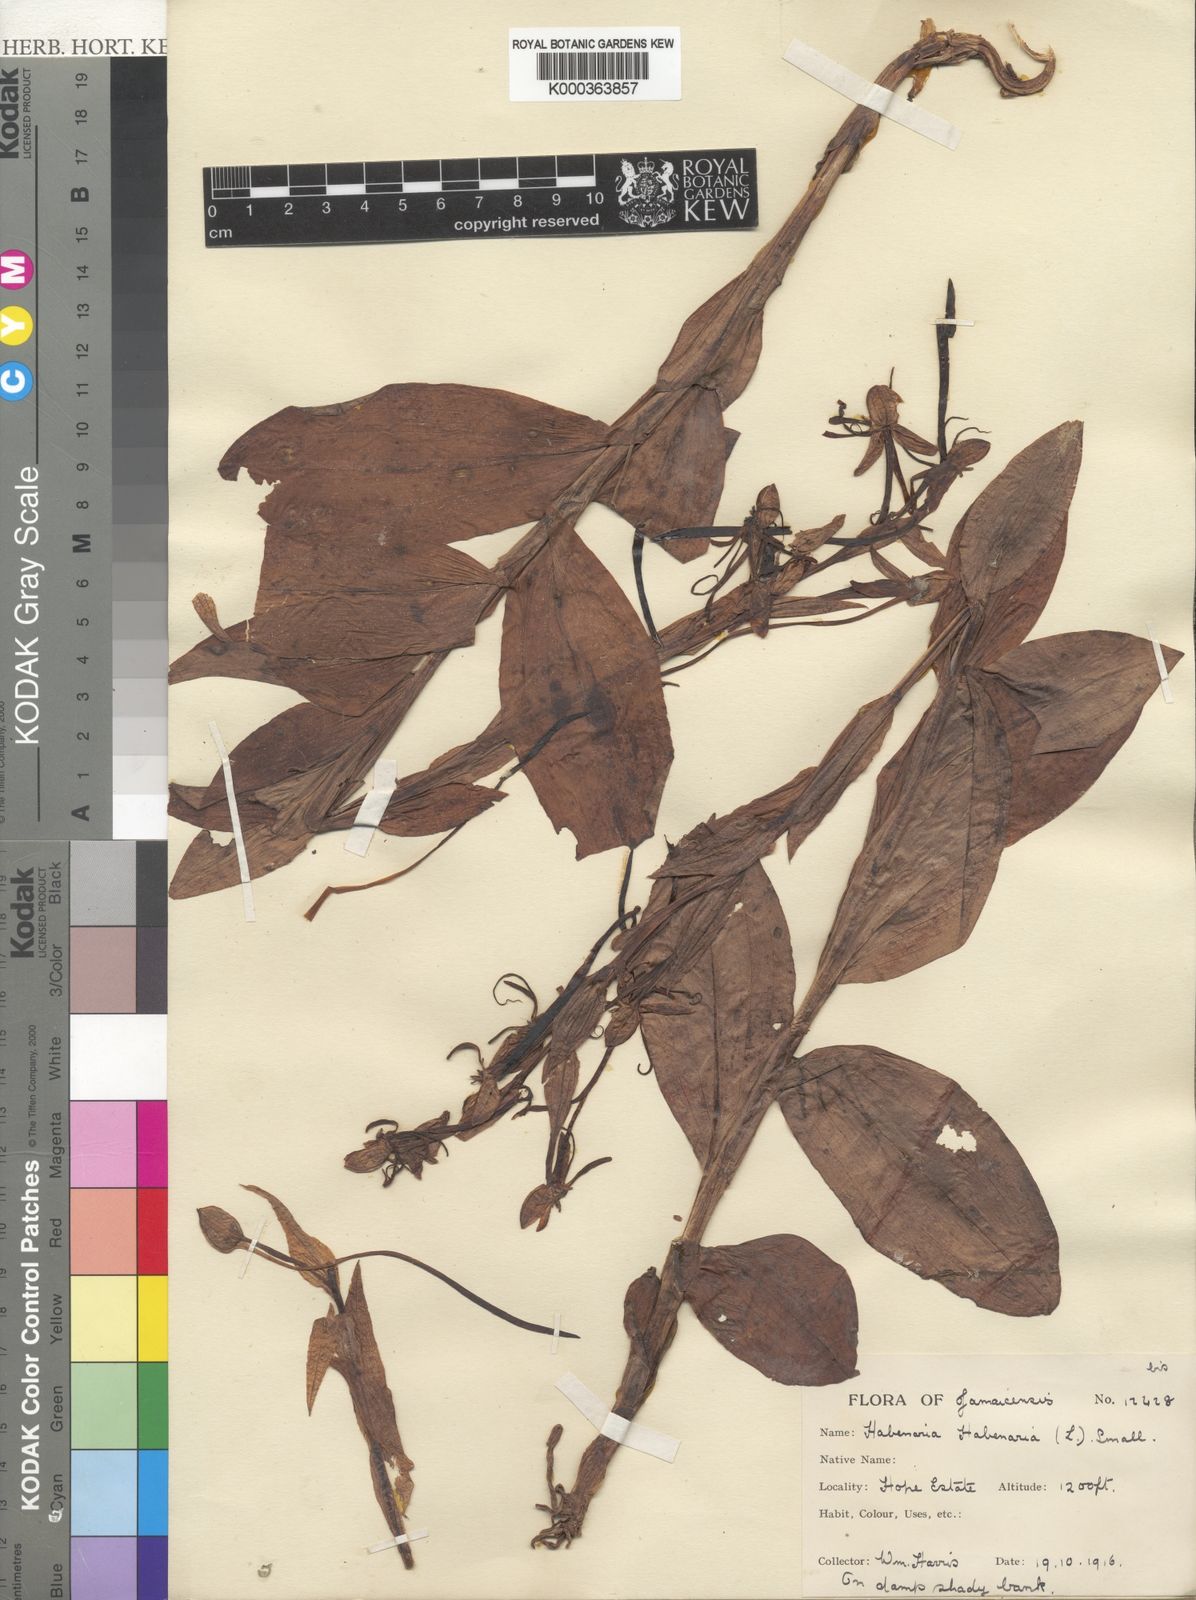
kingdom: Plantae
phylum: Tracheophyta
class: Liliopsida
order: Asparagales
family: Orchidaceae
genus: Habenaria
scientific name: Habenaria
